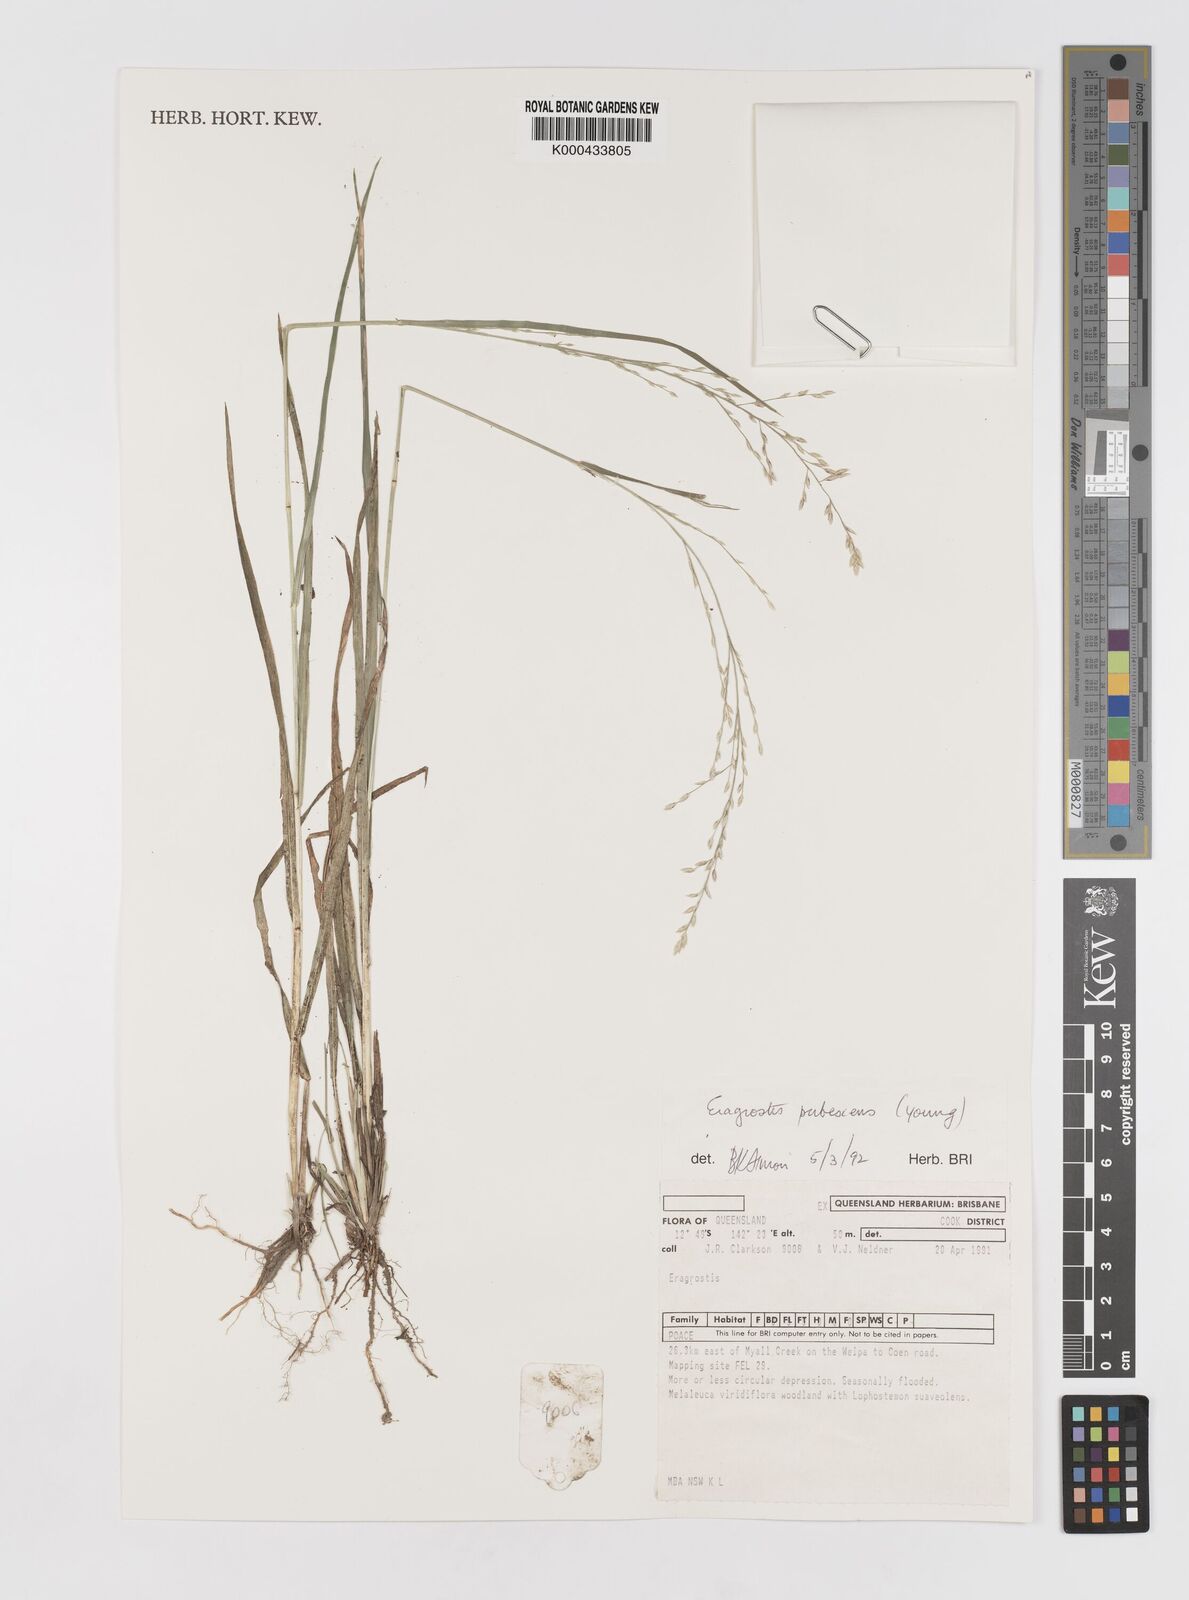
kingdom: Plantae
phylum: Tracheophyta
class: Liliopsida
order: Poales
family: Poaceae
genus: Eragrostis
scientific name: Eragrostis pubescens
